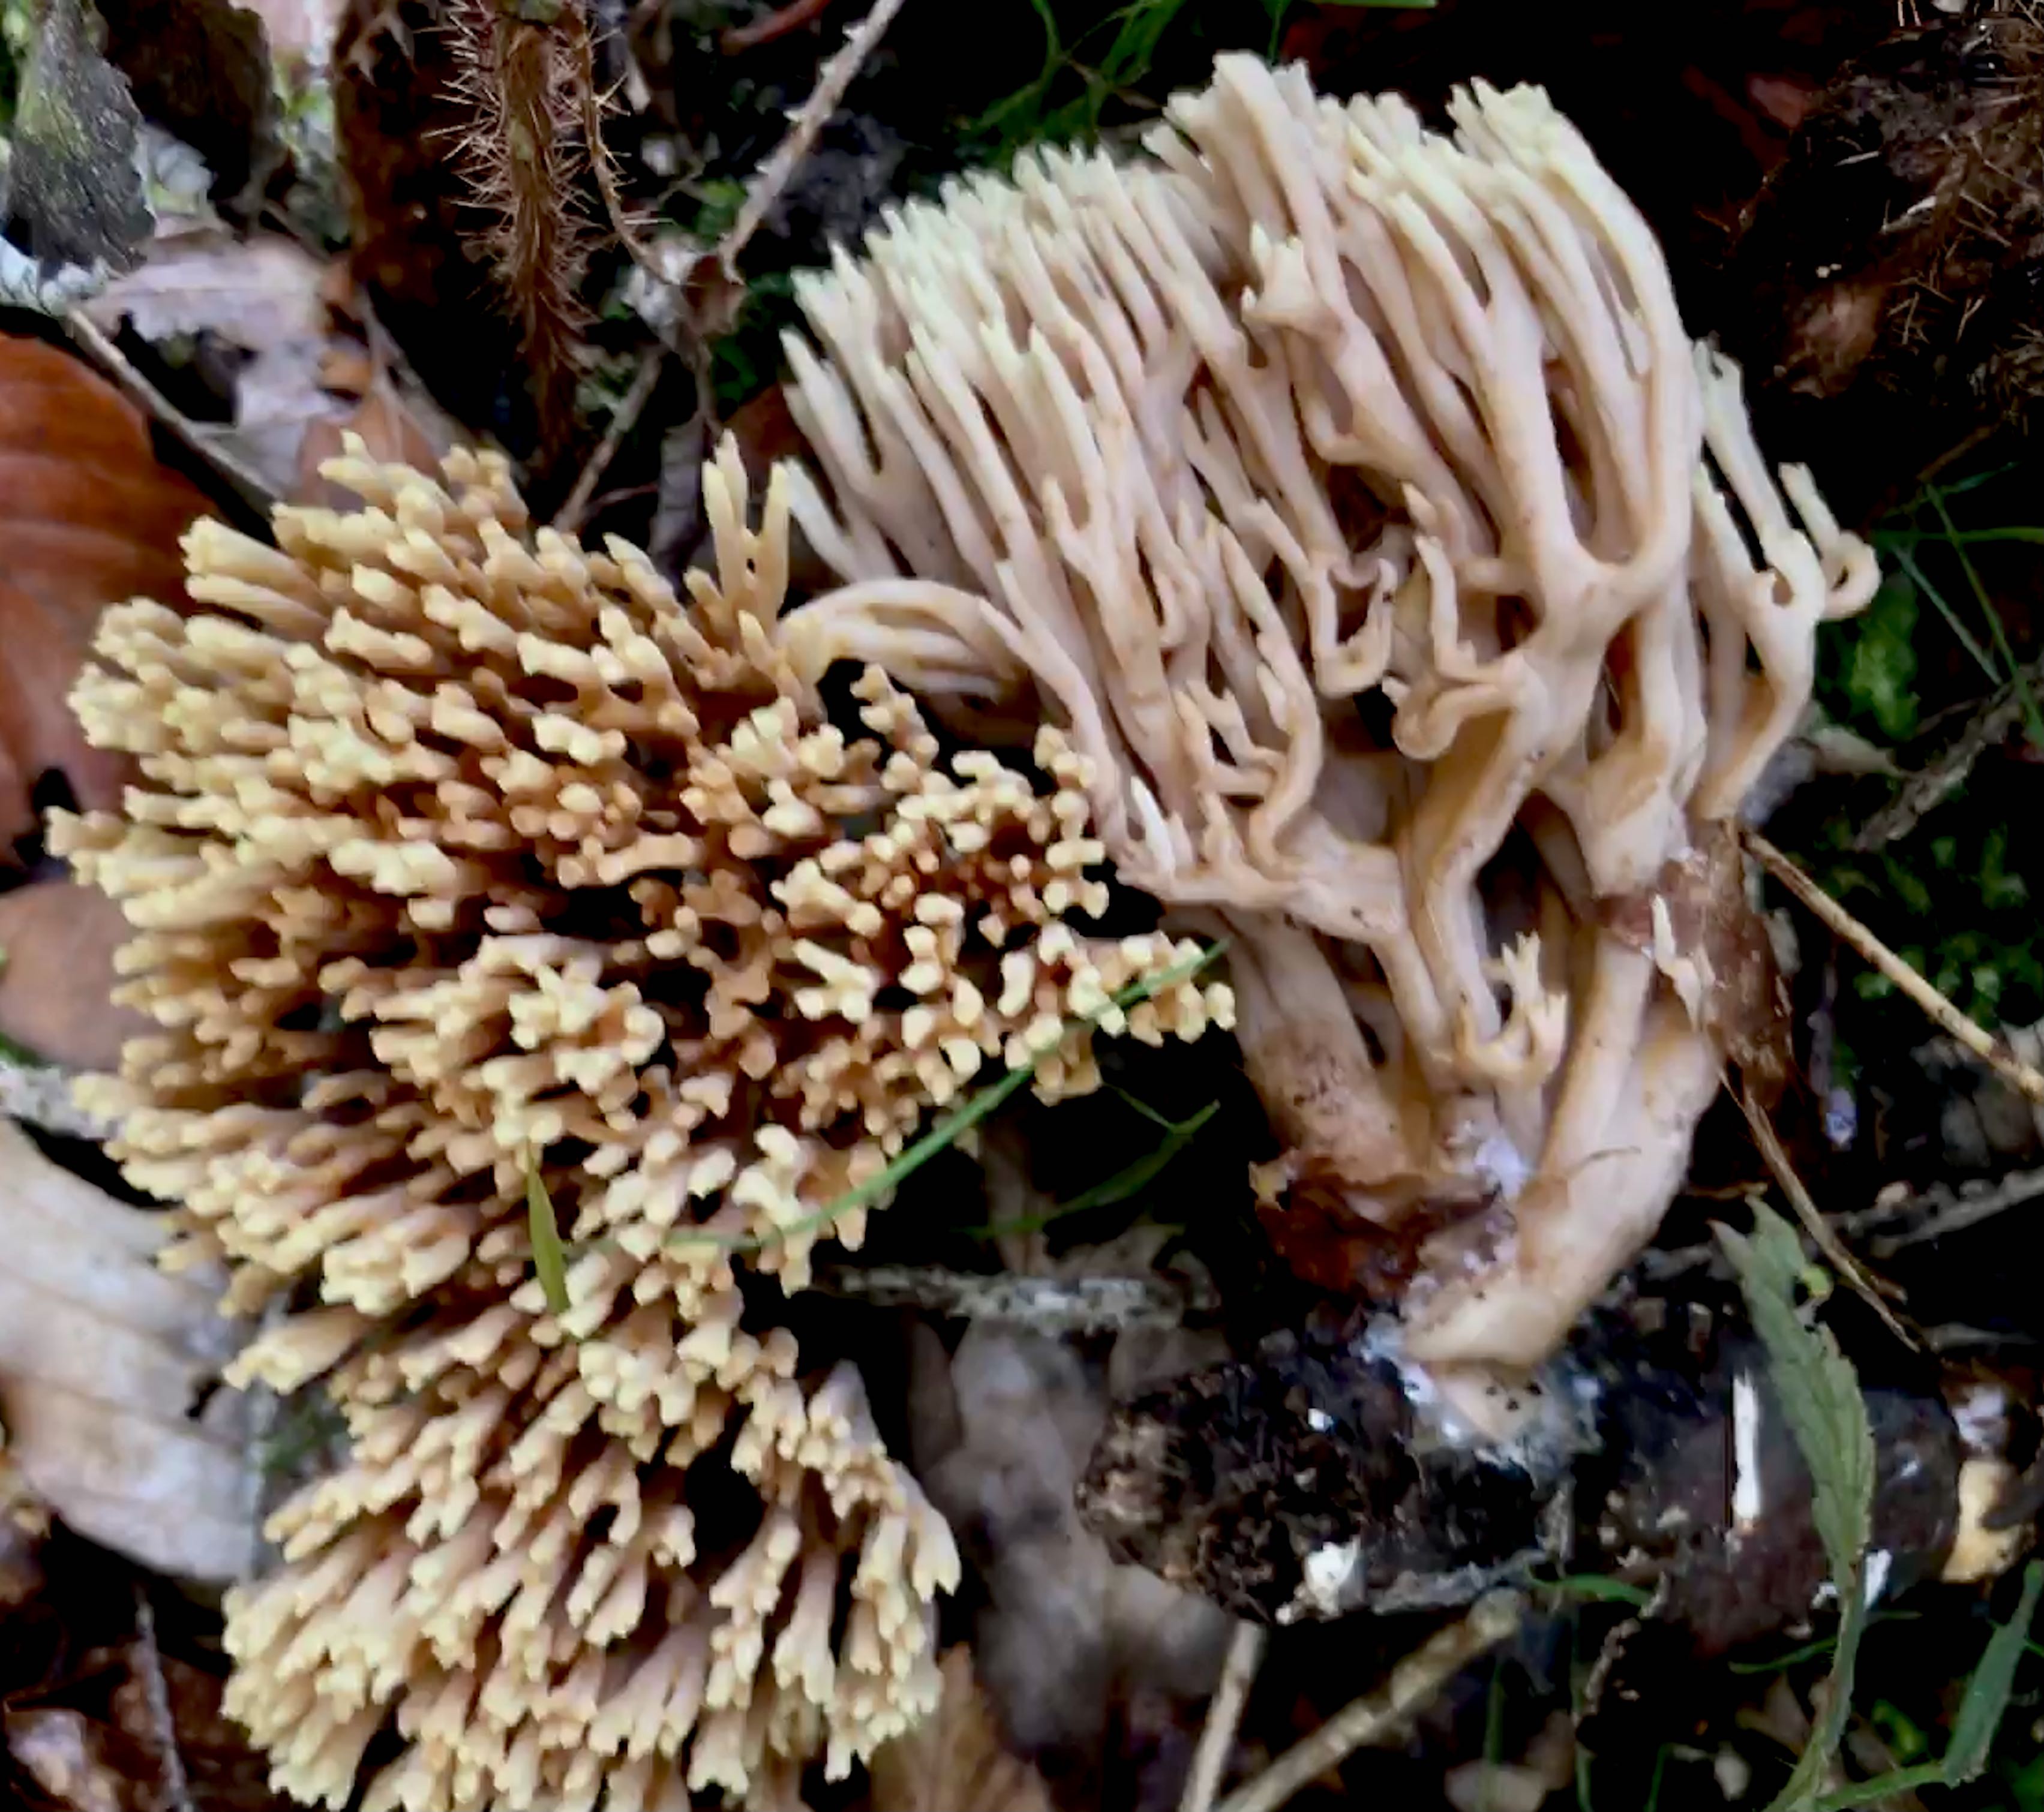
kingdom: Fungi
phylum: Basidiomycota
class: Agaricomycetes
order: Gomphales
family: Gomphaceae
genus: Ramaria
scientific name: Ramaria stricta
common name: rank koralsvamp
